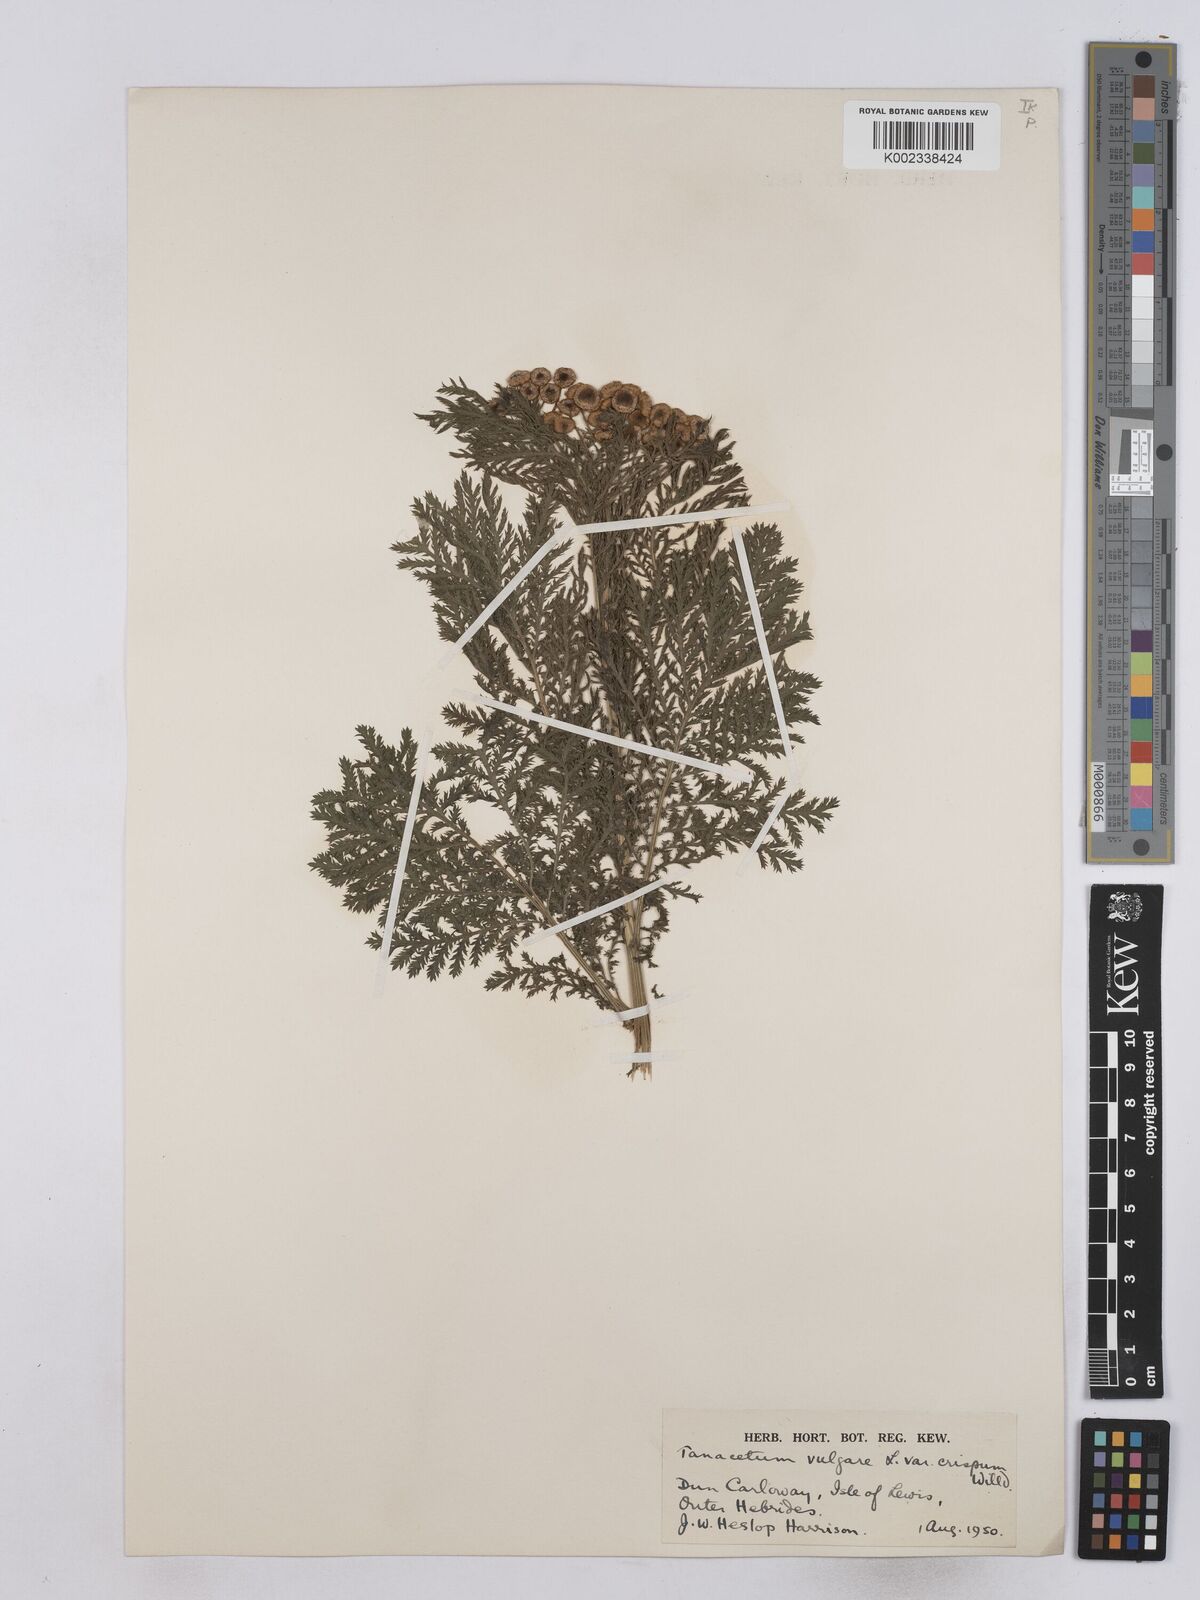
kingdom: Plantae
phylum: Tracheophyta
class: Magnoliopsida
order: Asterales
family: Asteraceae
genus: Tanacetum
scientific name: Tanacetum vulgare
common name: Common tansy
